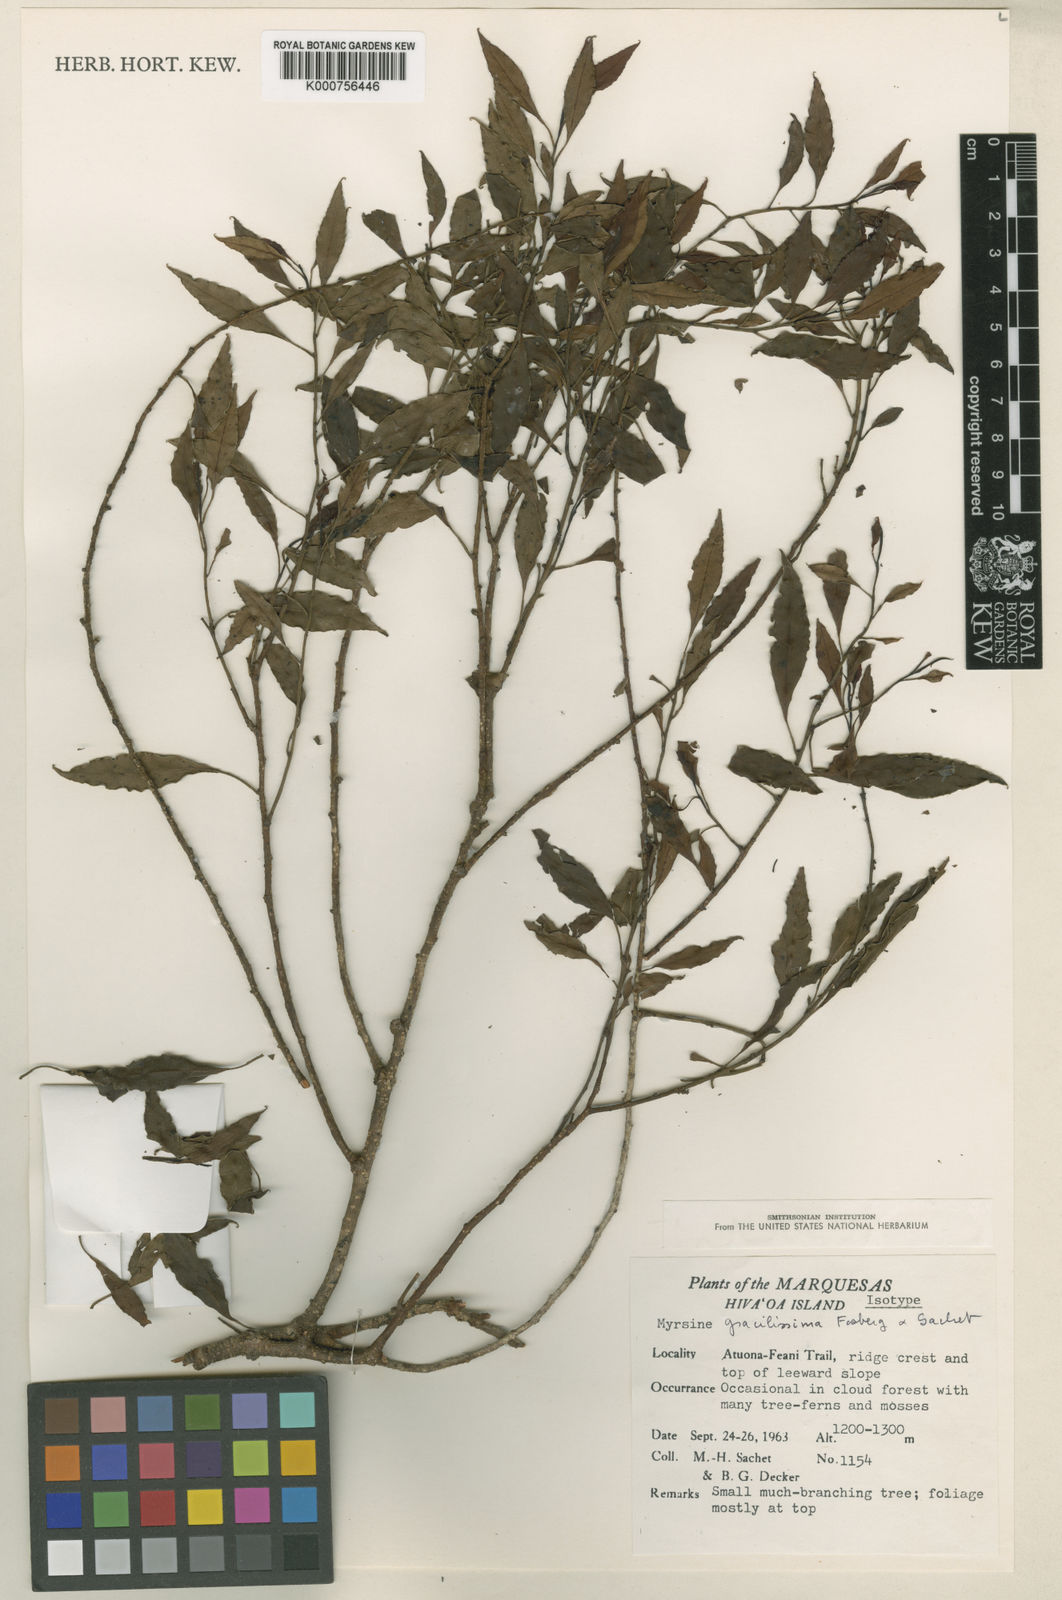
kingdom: Plantae
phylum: Tracheophyta
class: Magnoliopsida
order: Ericales
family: Primulaceae
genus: Myrsine
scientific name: Myrsine gracilissima
